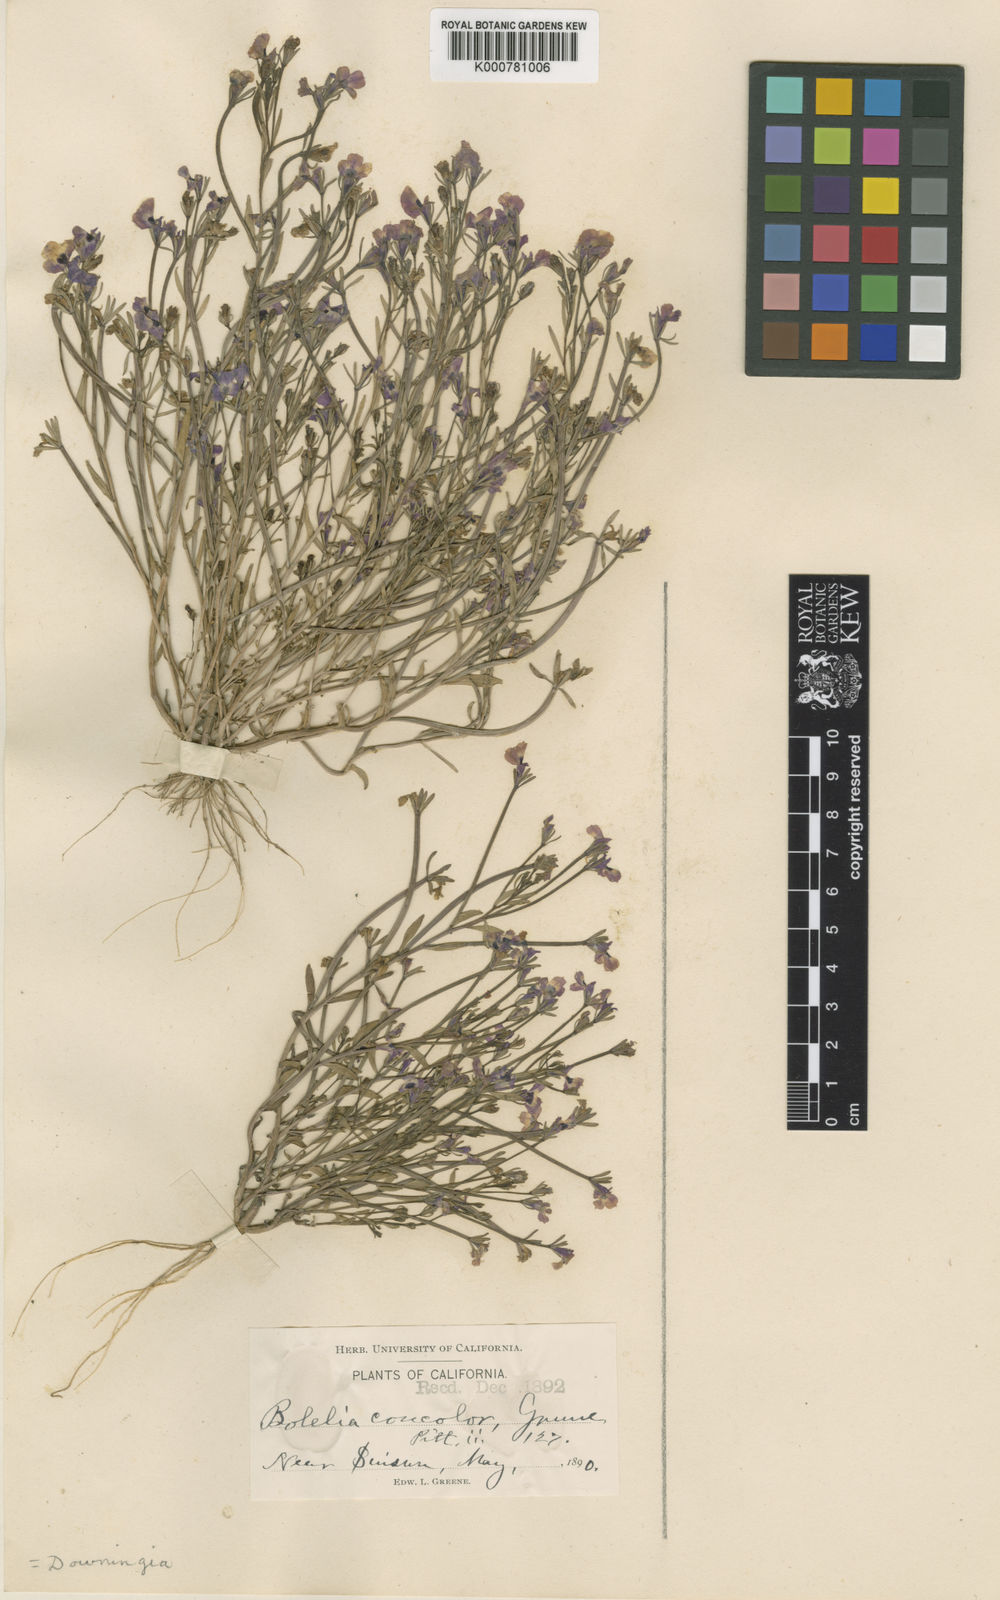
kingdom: Plantae
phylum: Tracheophyta
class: Magnoliopsida
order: Asterales
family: Campanulaceae
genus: Downingia
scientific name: Downingia concolor
